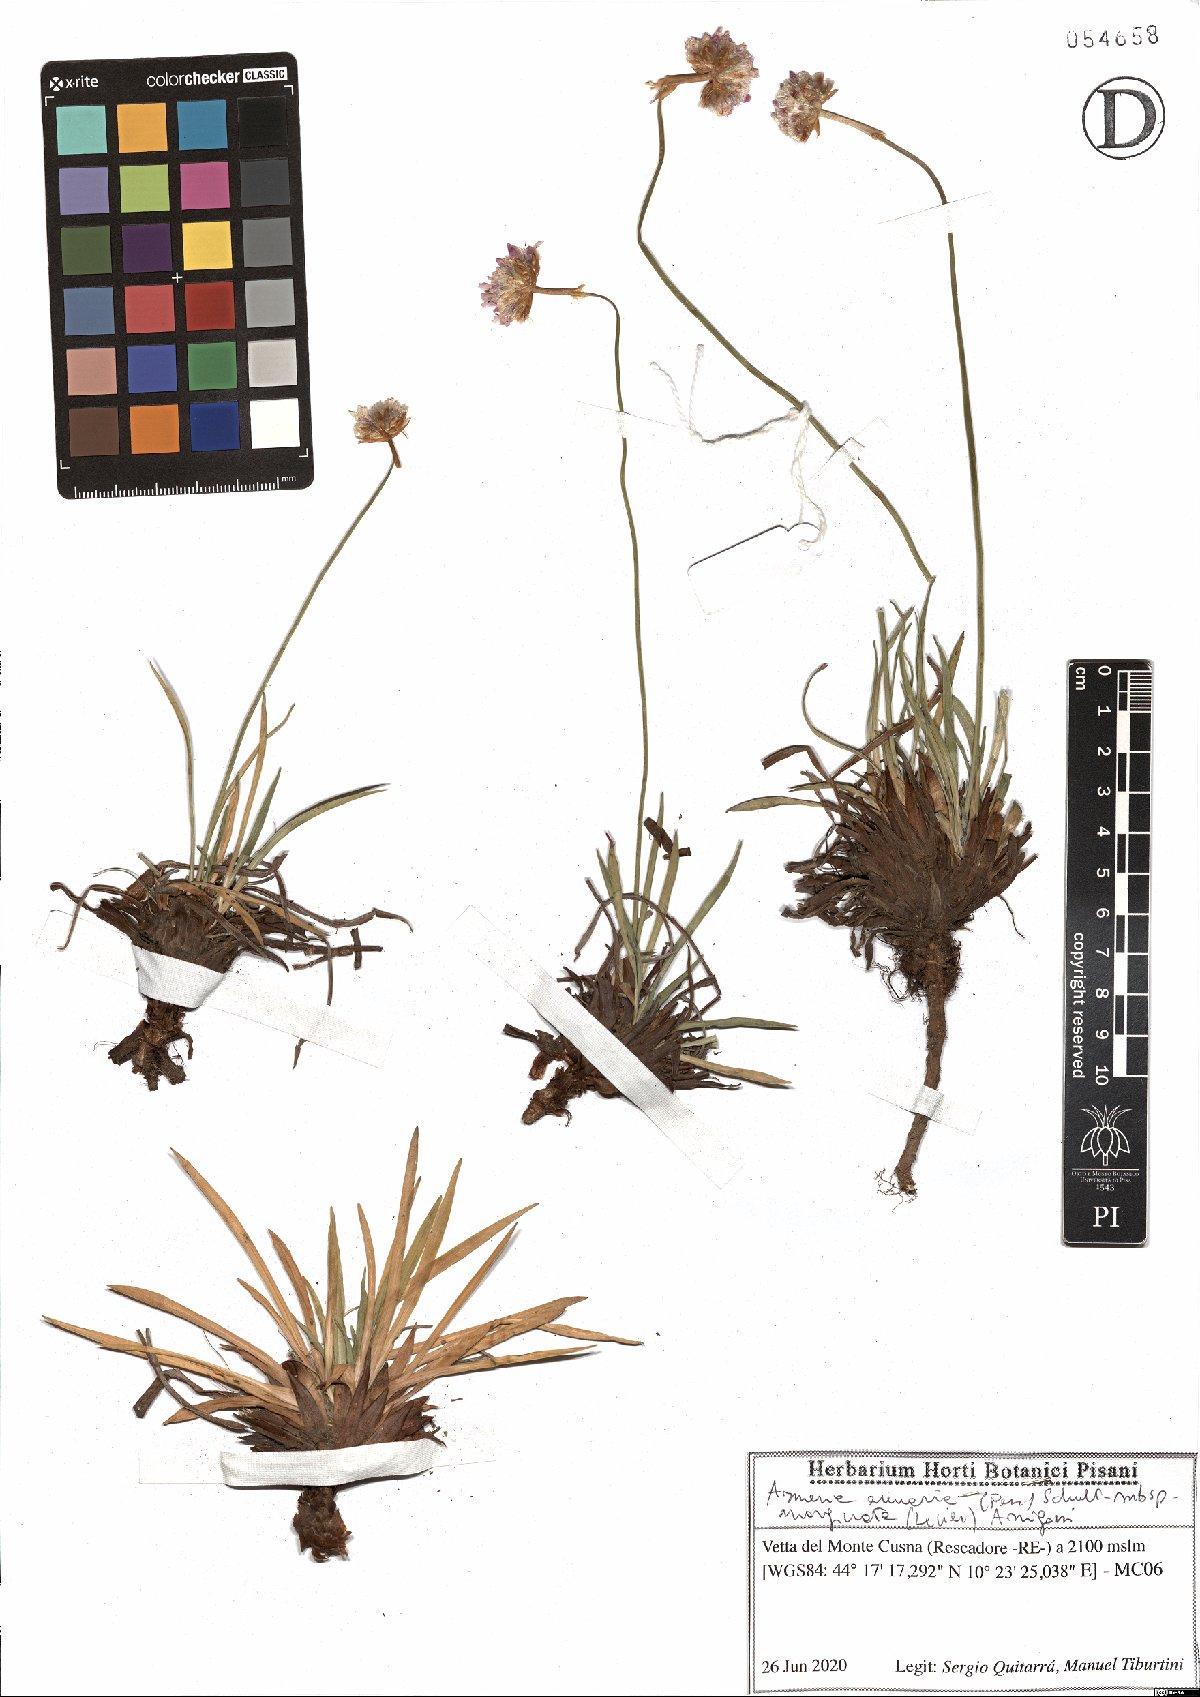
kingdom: Plantae
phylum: Tracheophyta
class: Magnoliopsida
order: Caryophyllales
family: Plumbaginaceae
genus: Armeria
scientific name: Armeria arenaria
